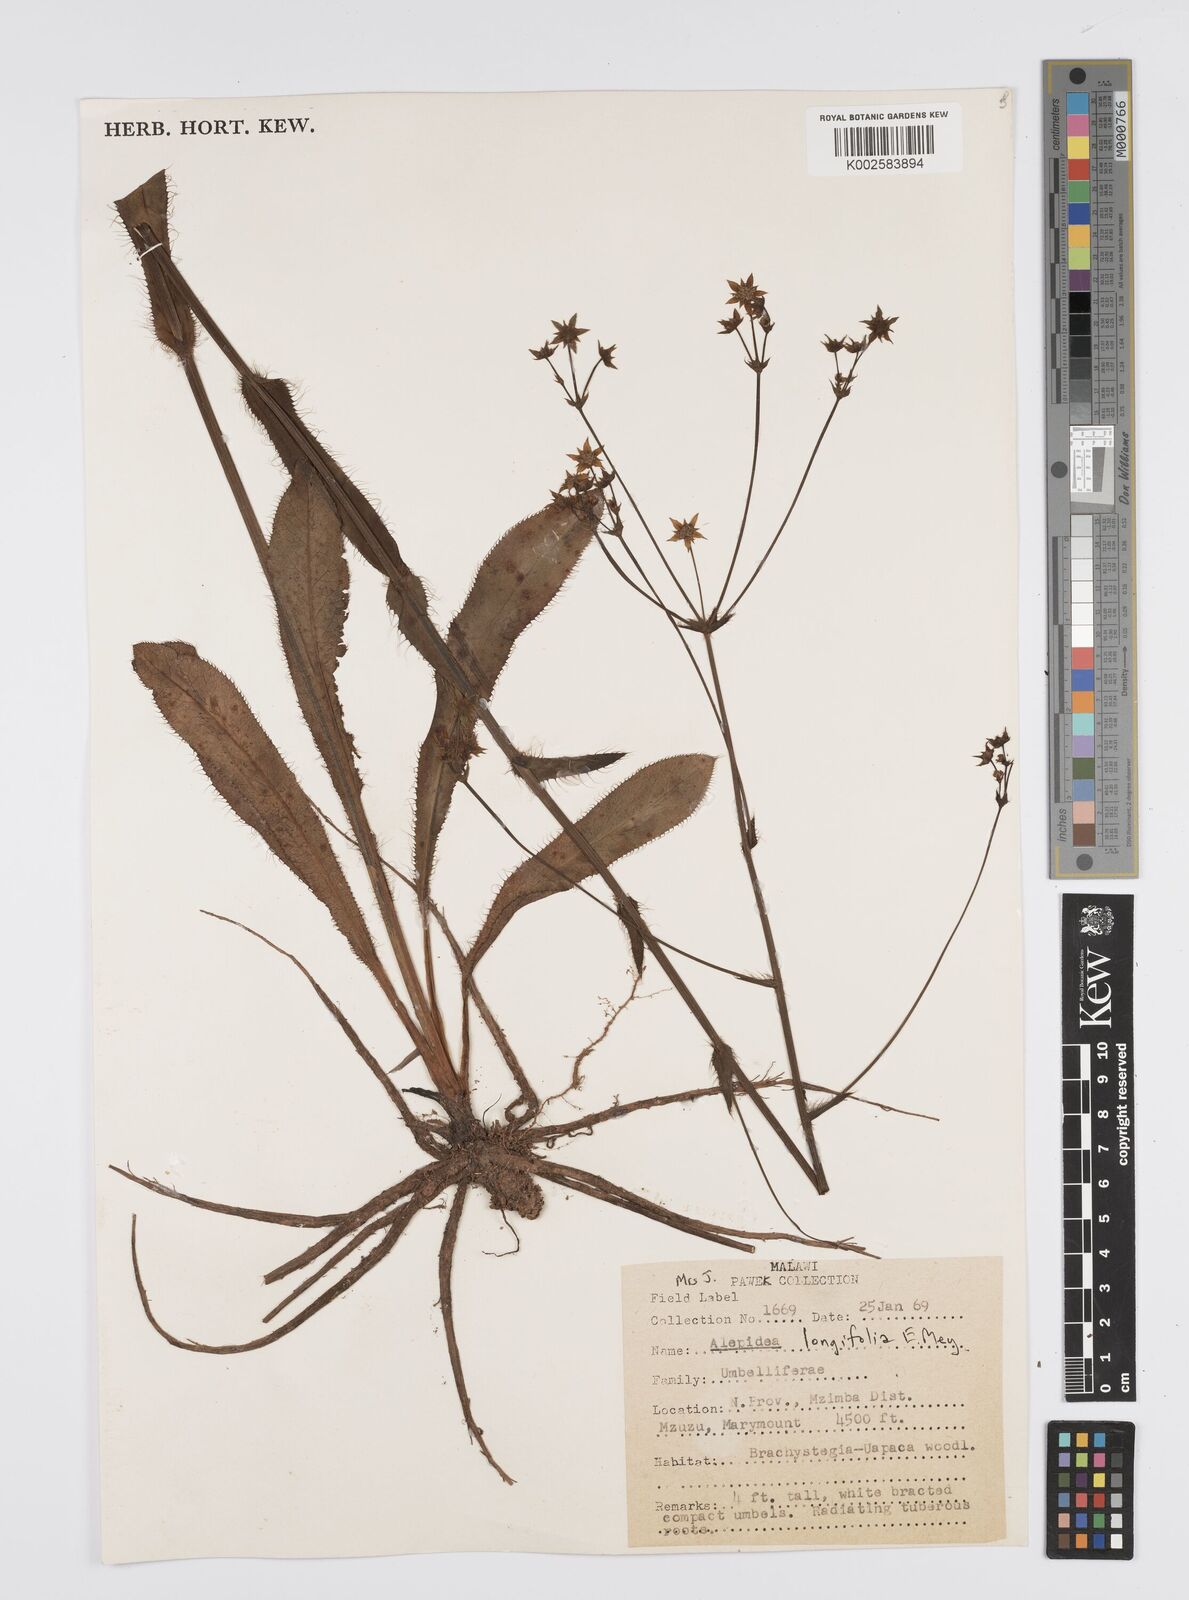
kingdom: Plantae
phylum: Tracheophyta
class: Magnoliopsida
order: Apiales
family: Apiaceae
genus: Alepidea
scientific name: Alepidea
